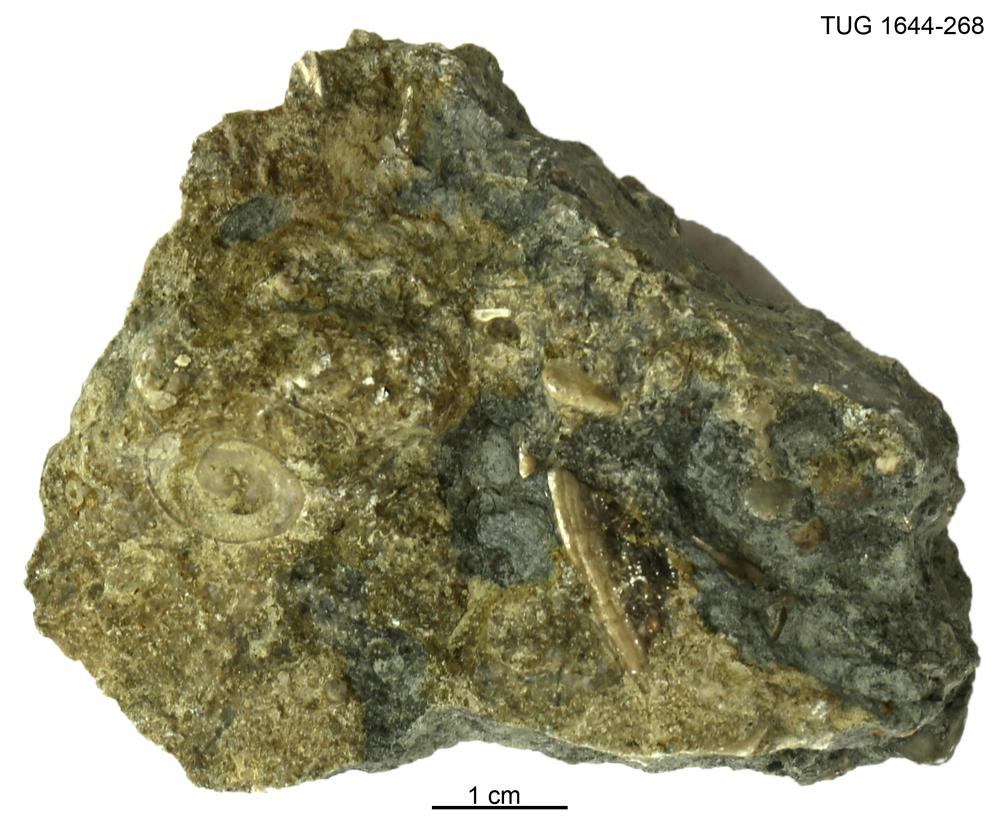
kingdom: Animalia
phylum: Mollusca
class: Monoplacophora
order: Tryblidiida
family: Tryblidiidae
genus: Pilina
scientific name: Pilina
